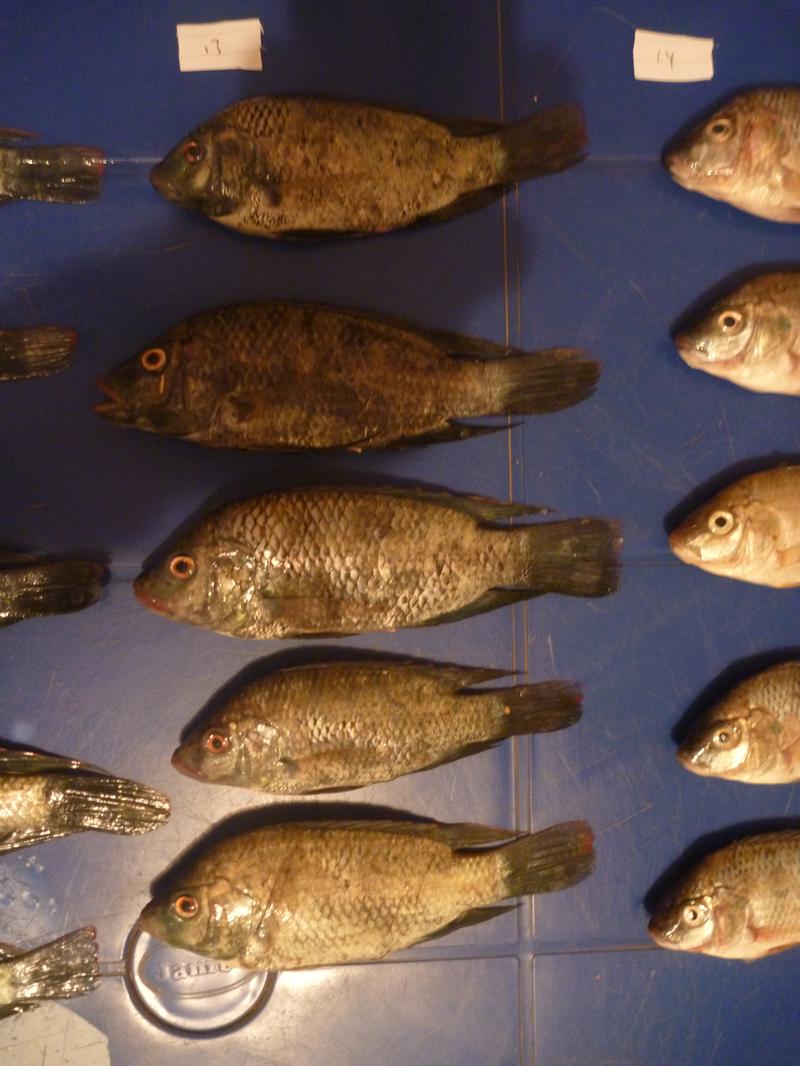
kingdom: Animalia
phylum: Chordata
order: Perciformes
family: Cichlidae
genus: Oreochromis
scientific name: Oreochromis urolepis
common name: Wami tilapia
